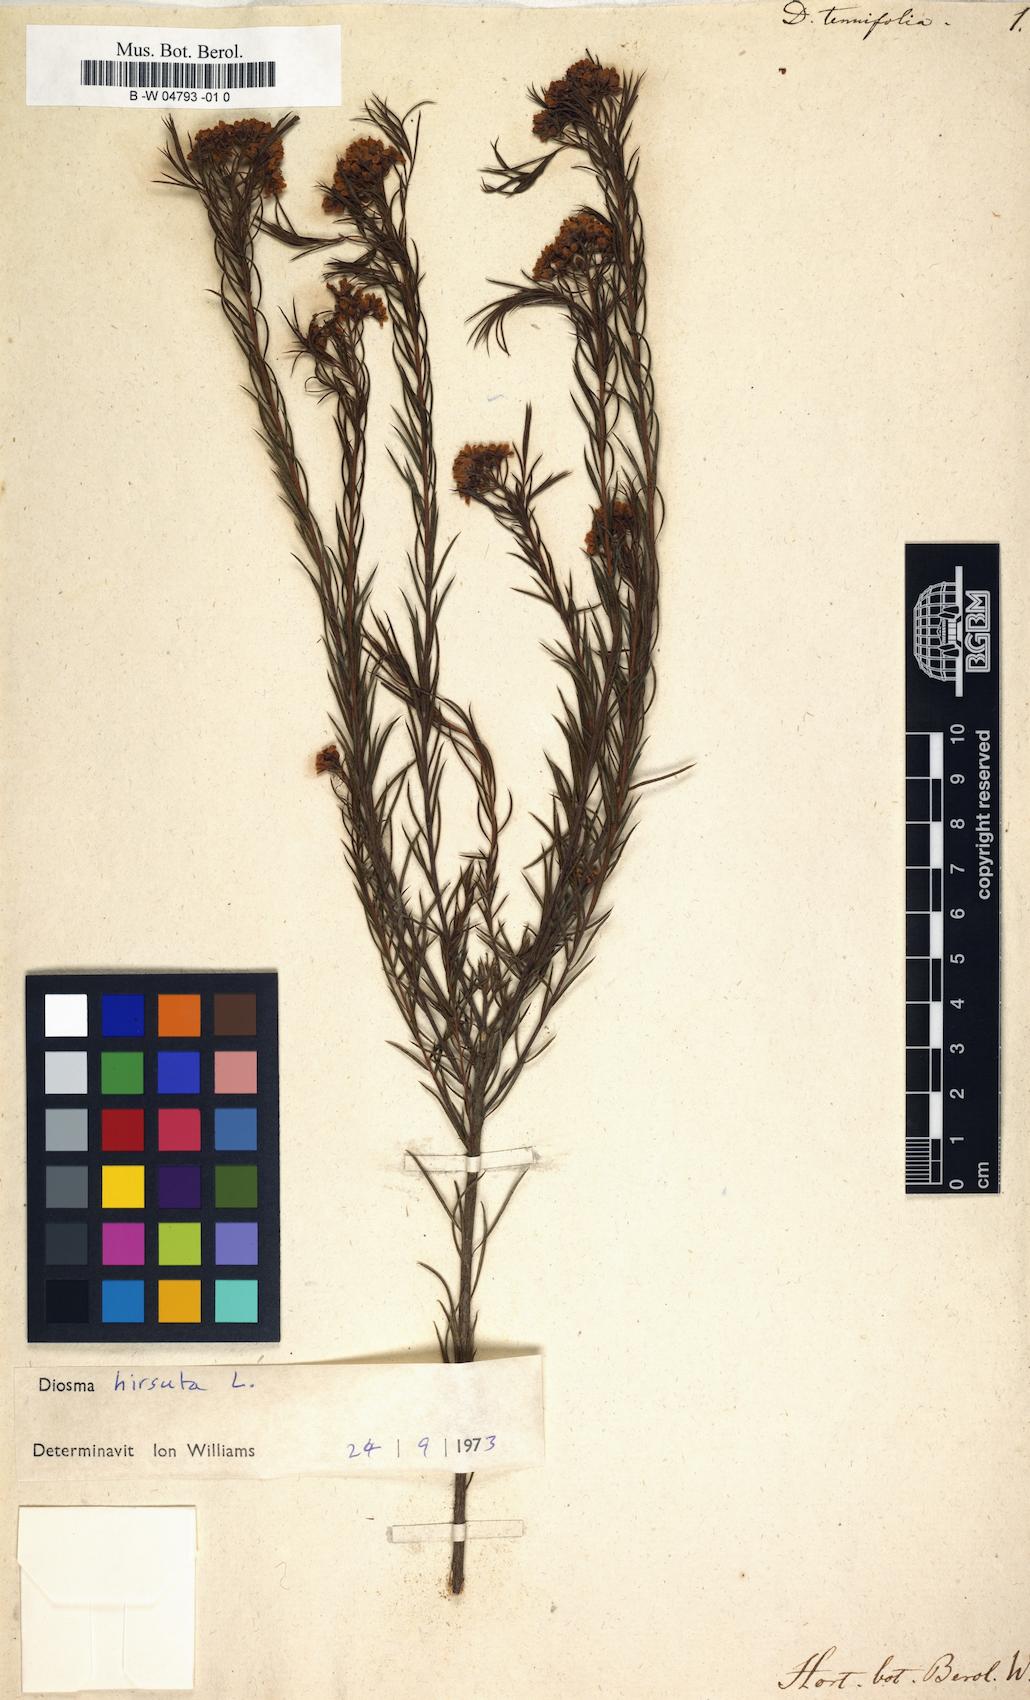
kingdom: Plantae
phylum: Tracheophyta
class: Magnoliopsida
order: Sapindales
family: Rutaceae
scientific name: Rutaceae
